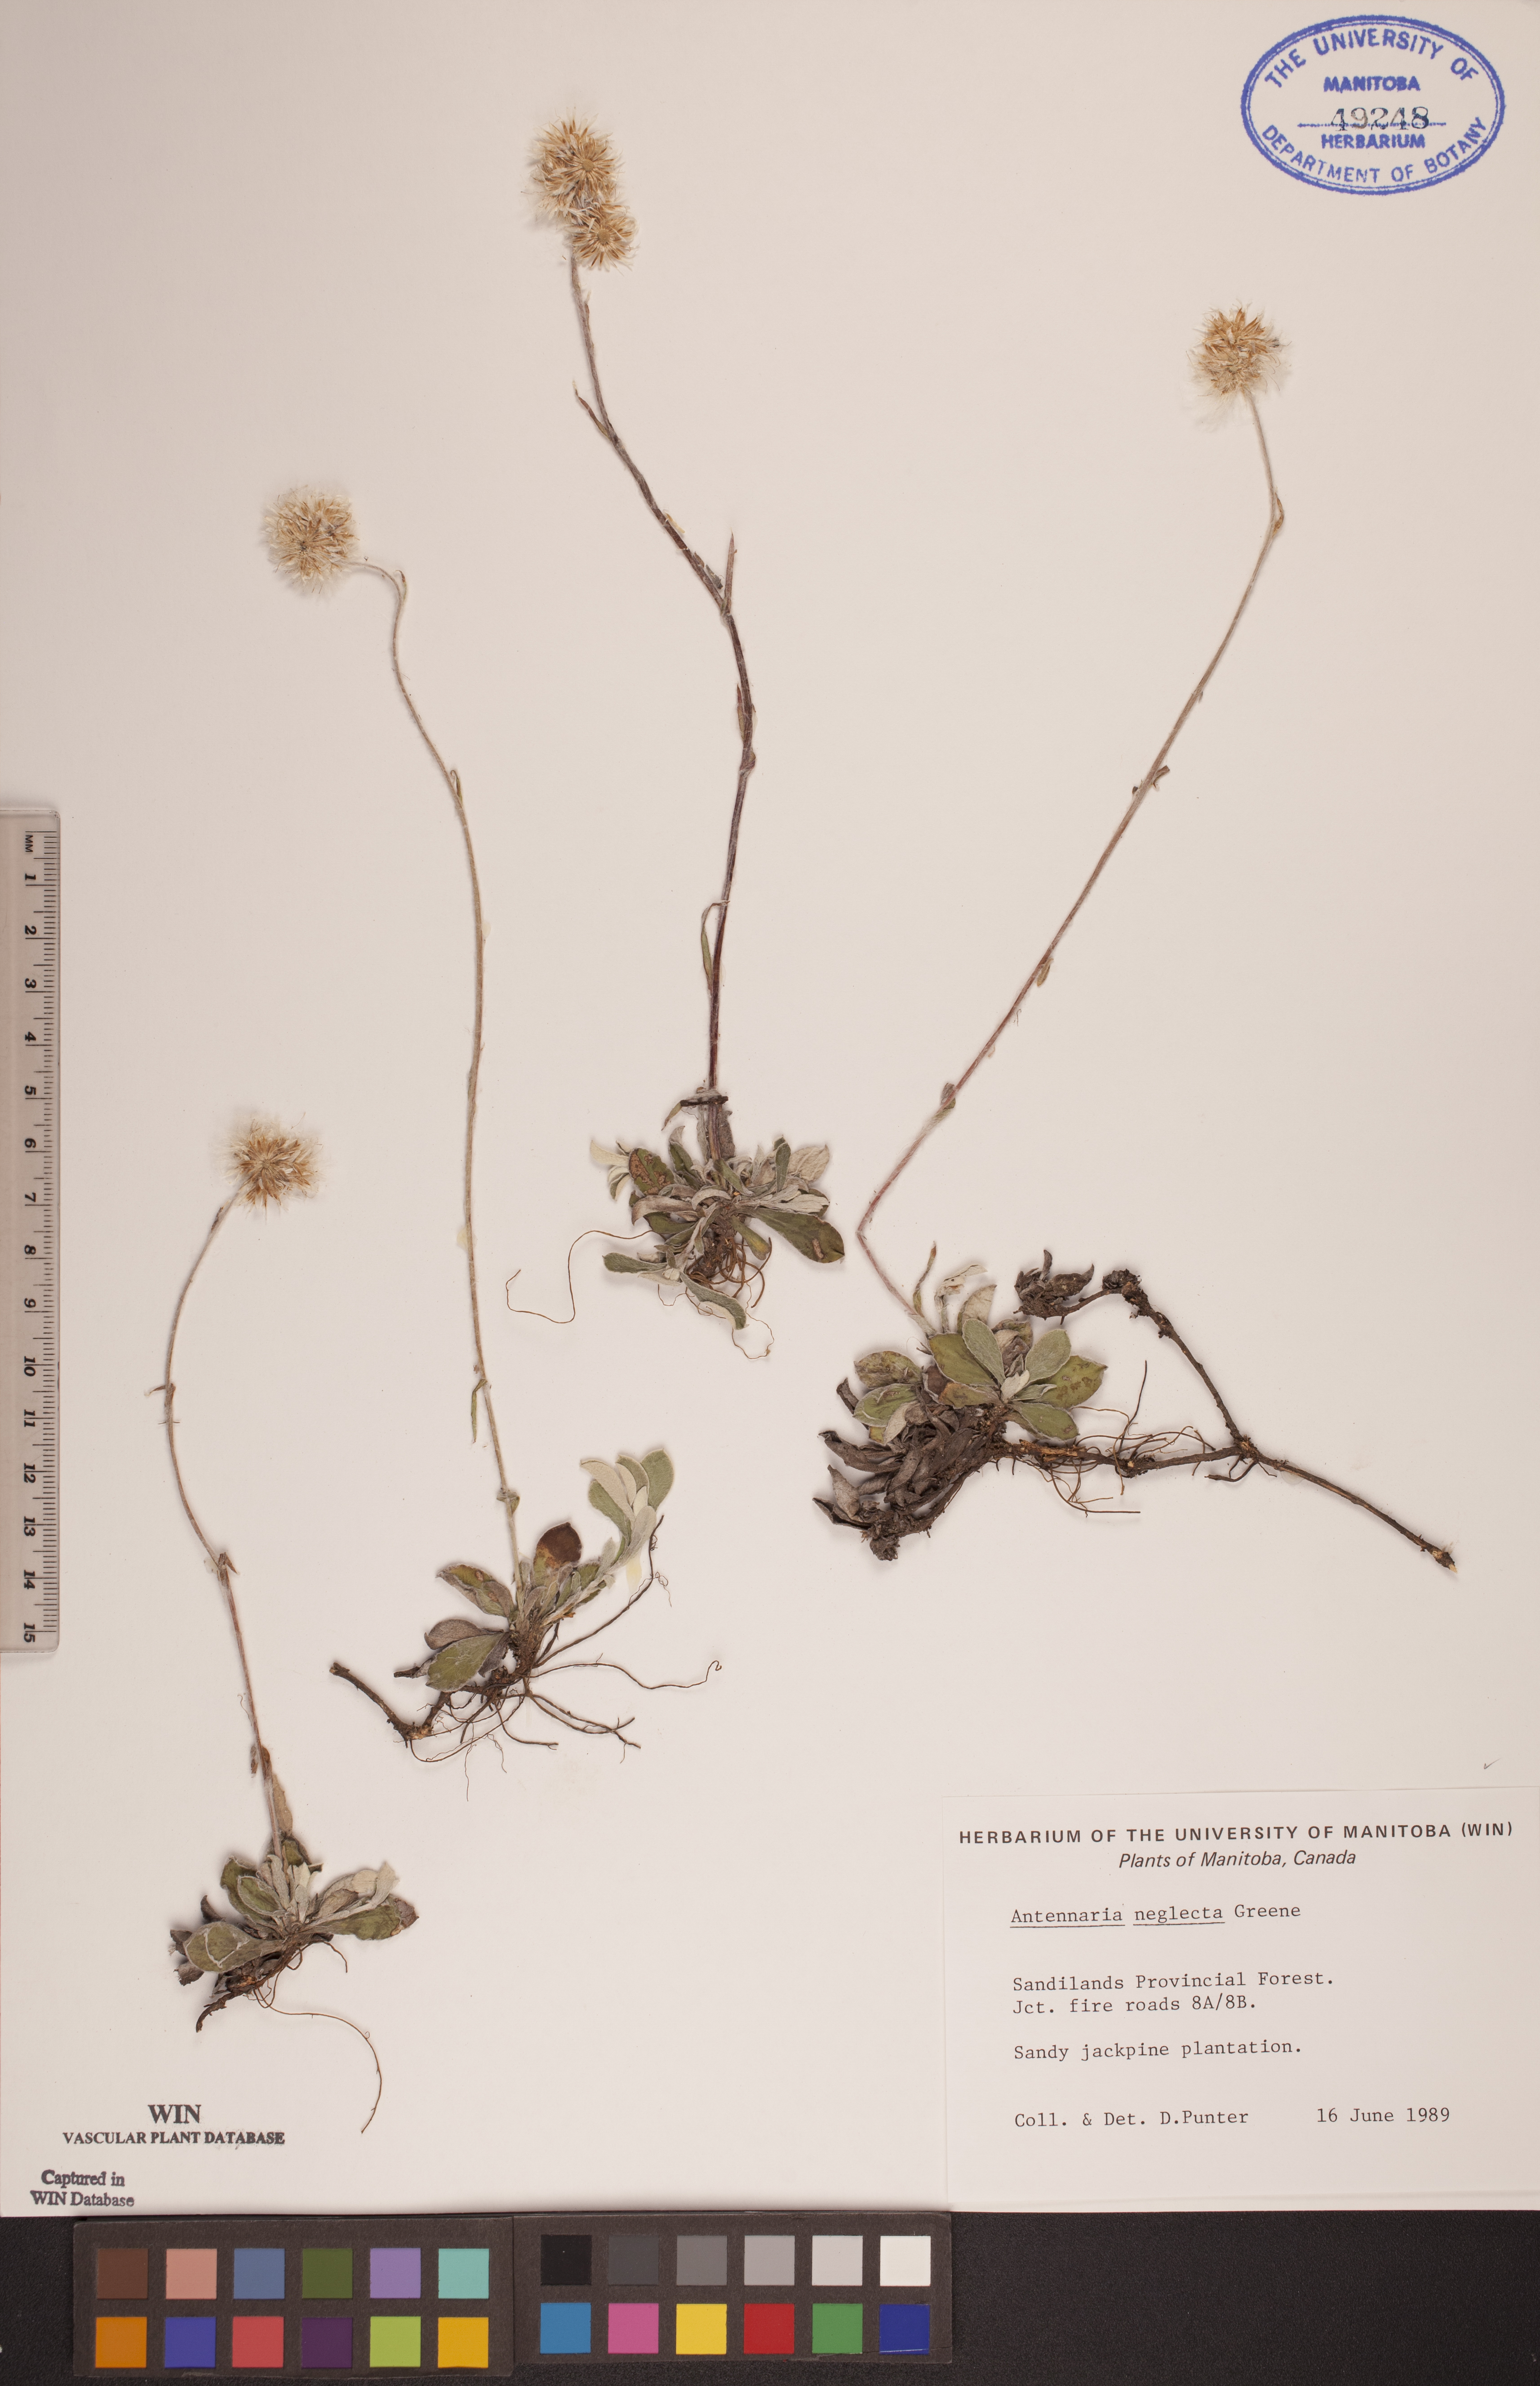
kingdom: Plantae
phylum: Tracheophyta
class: Magnoliopsida
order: Asterales
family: Asteraceae
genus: Antennaria
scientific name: Antennaria neglecta
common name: Field pussytoes
